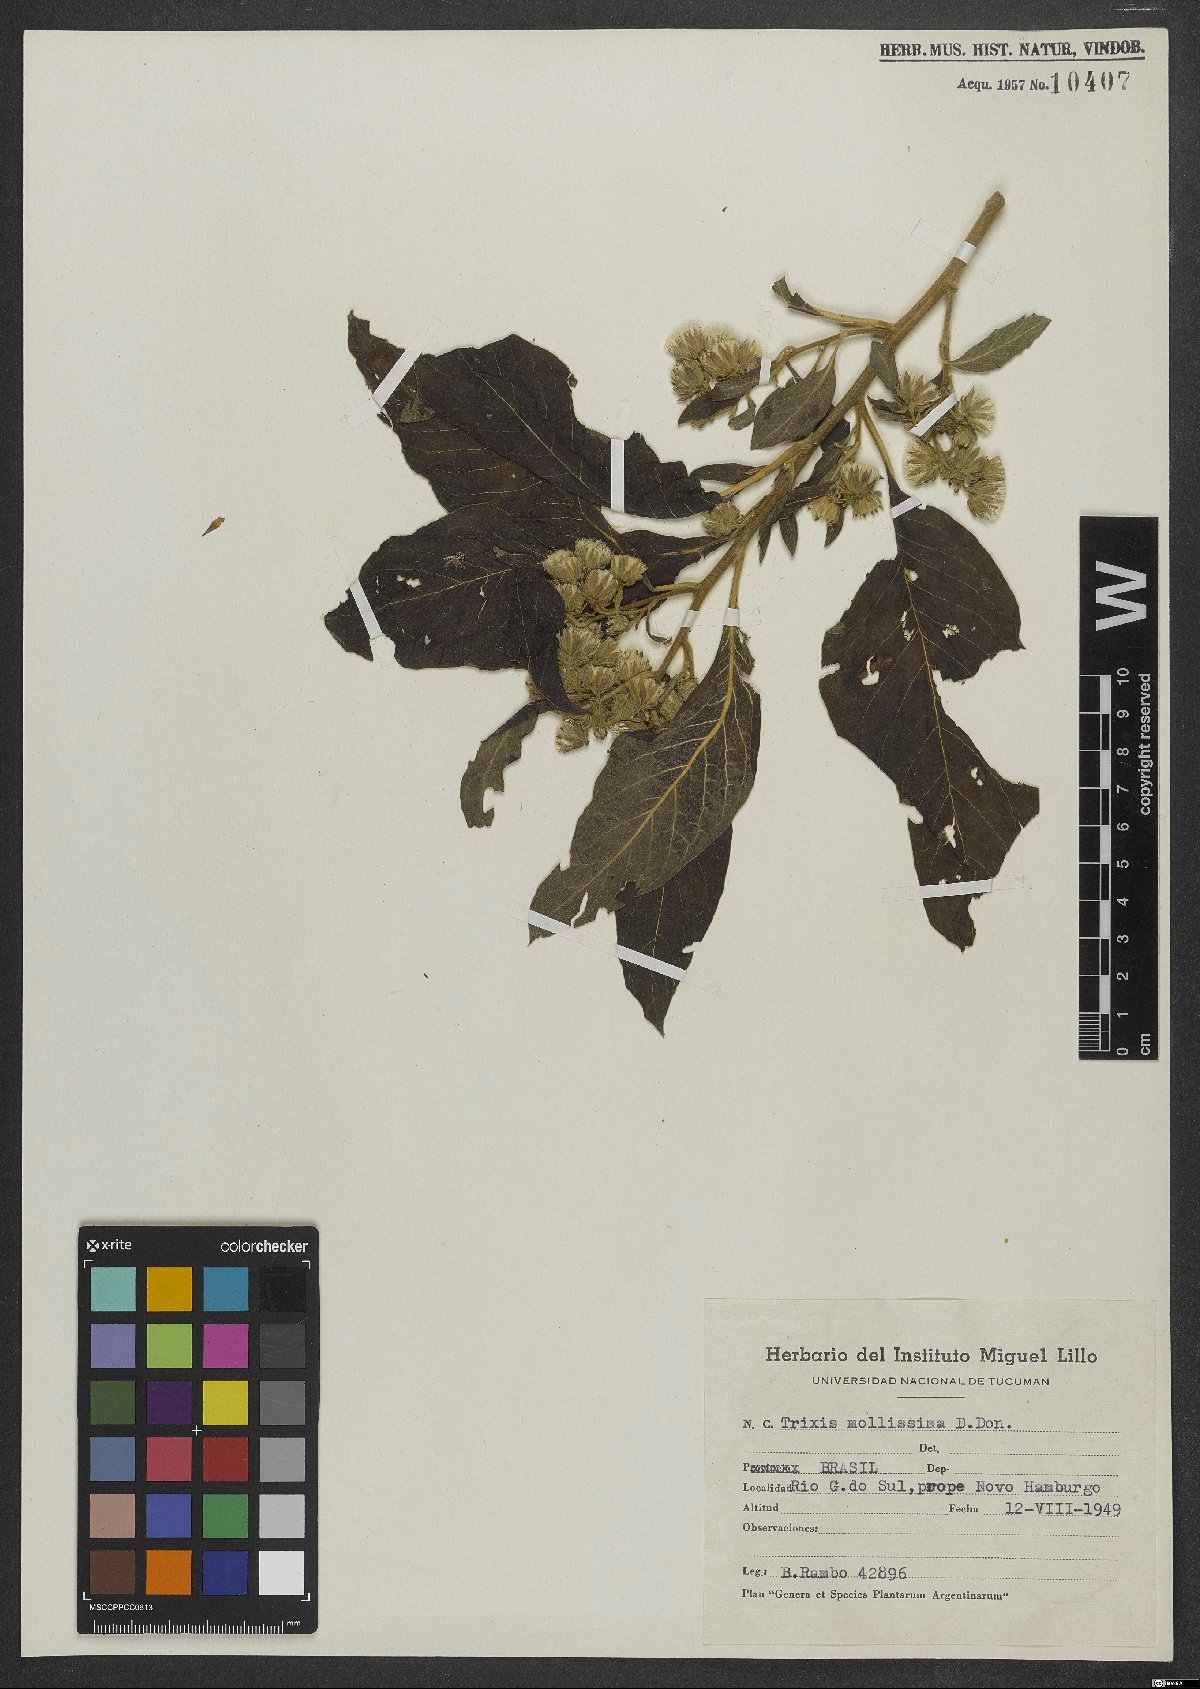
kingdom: Plantae
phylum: Tracheophyta
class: Magnoliopsida
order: Asterales
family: Asteraceae
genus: Trixis
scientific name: Trixis praestans
